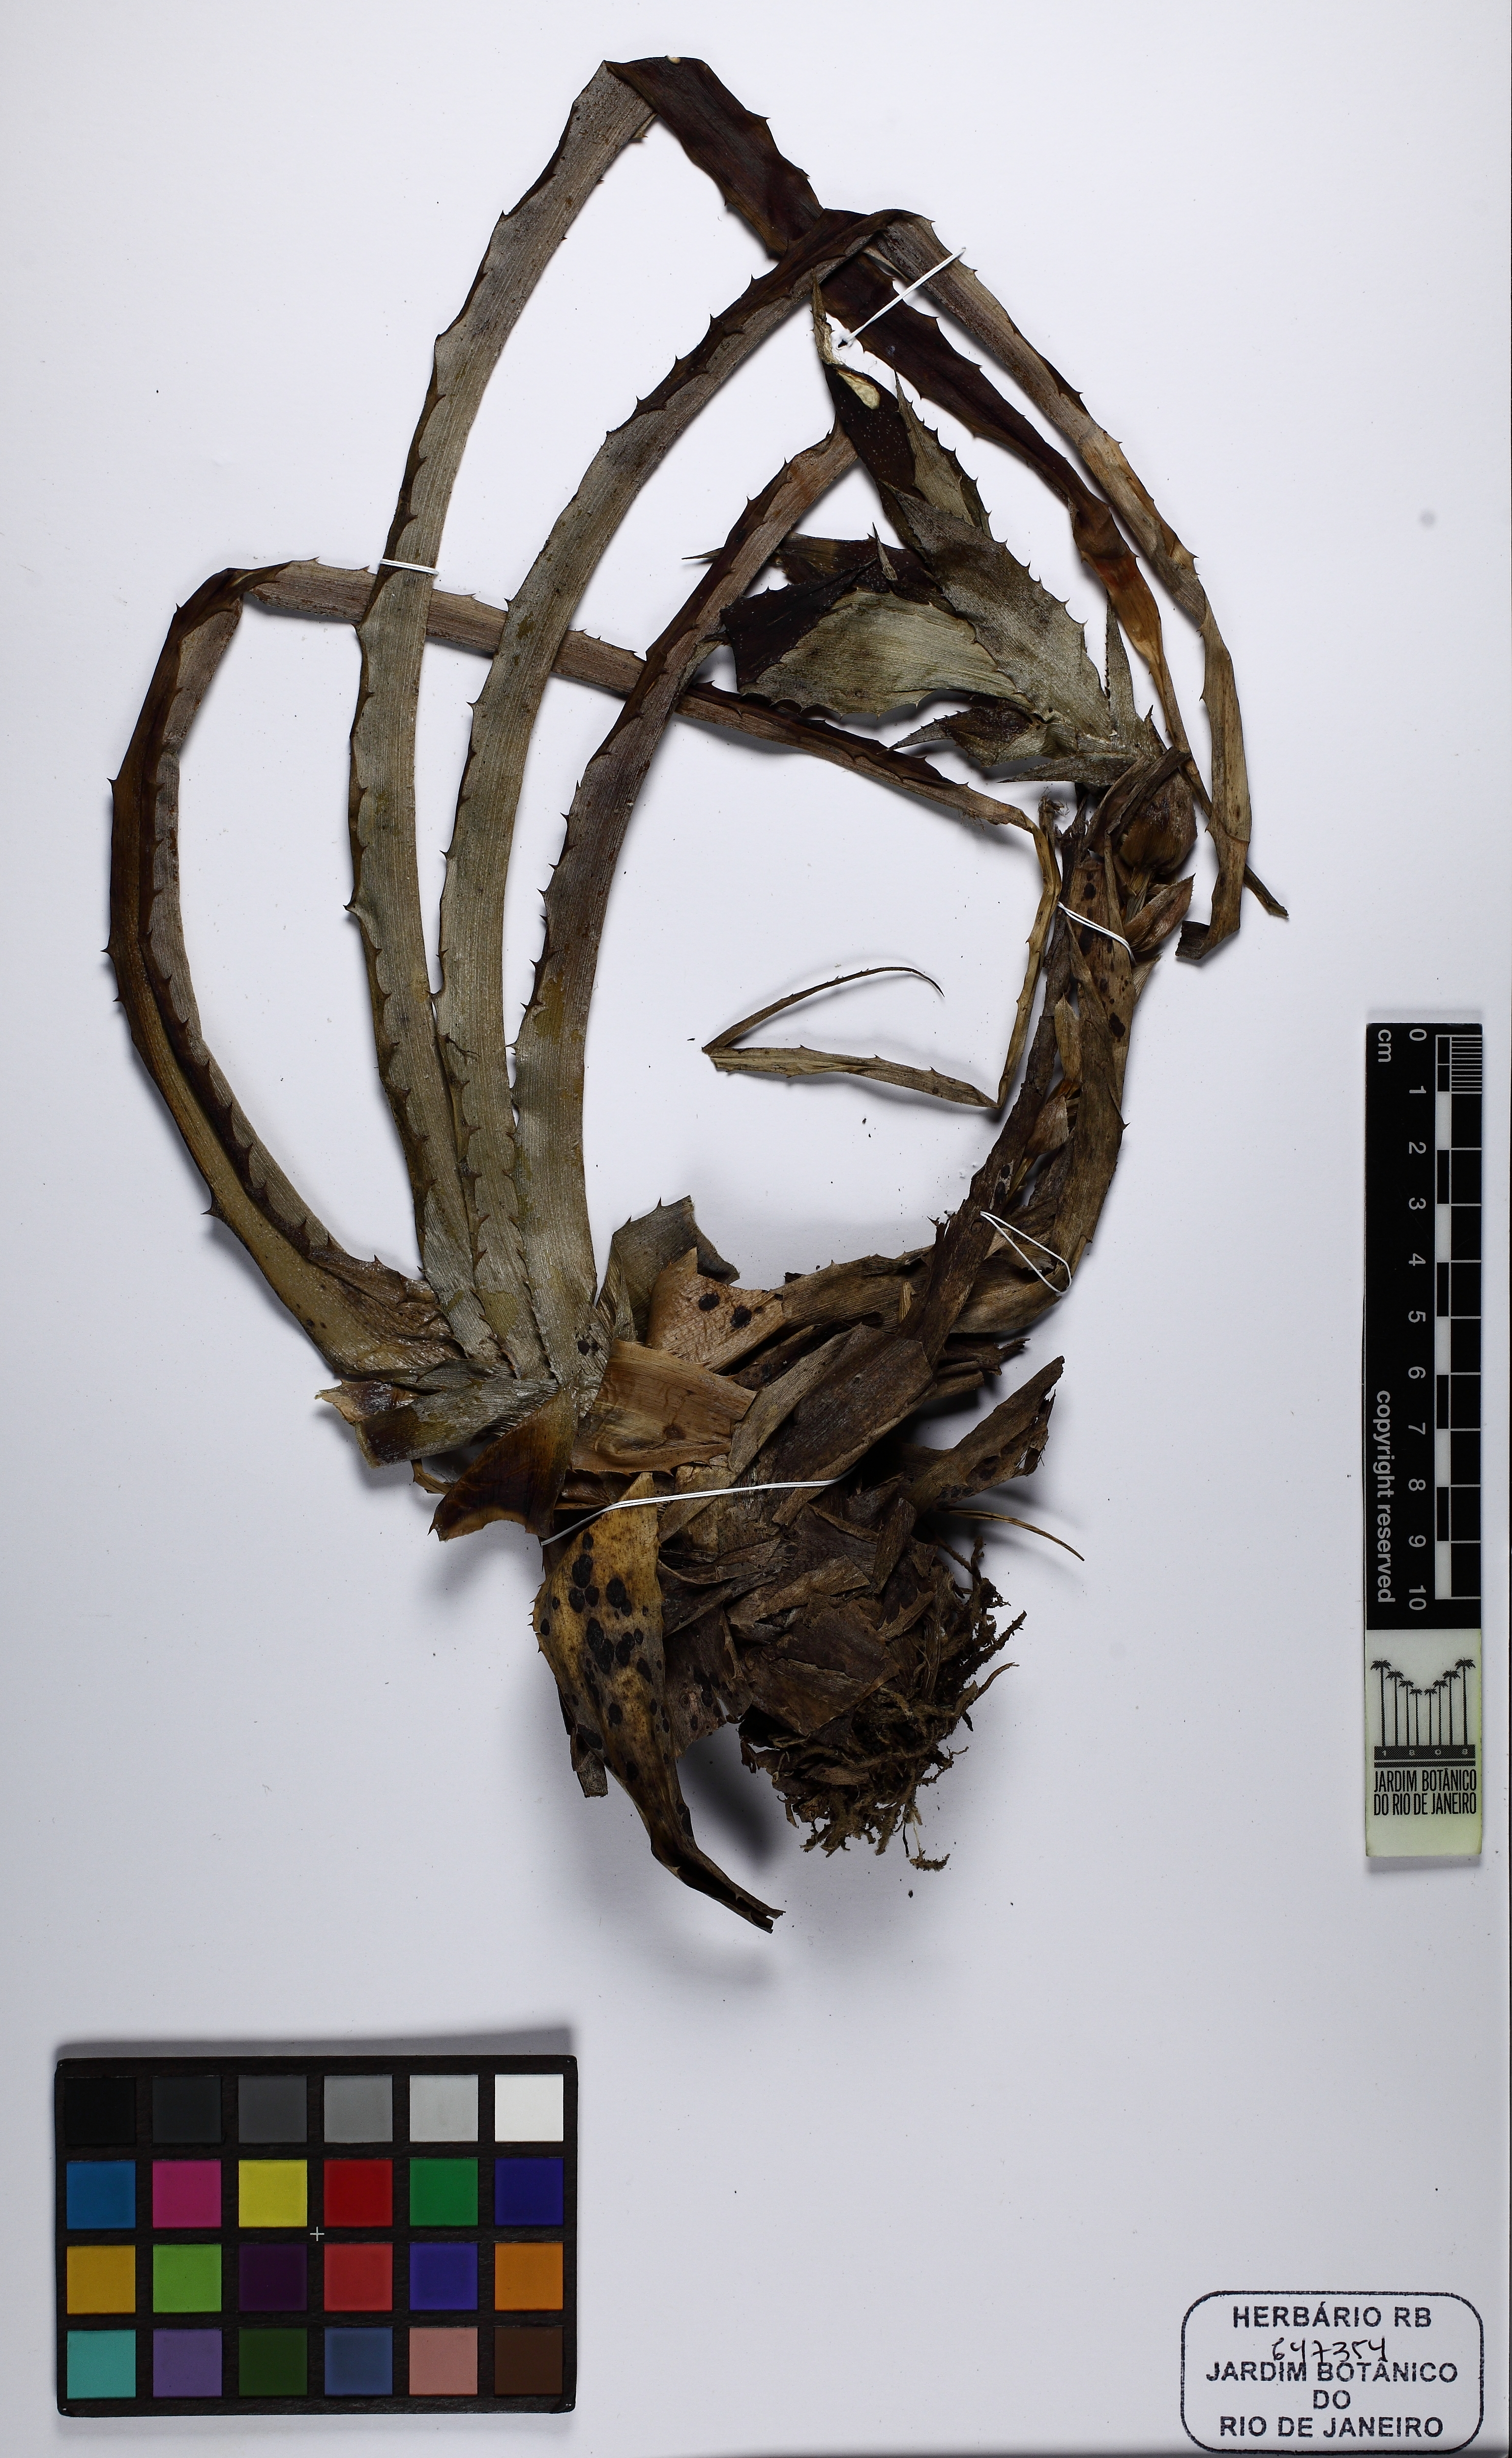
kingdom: Plantae
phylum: Tracheophyta
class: Liliopsida
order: Poales
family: Bromeliaceae
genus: Orthophytum
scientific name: Orthophytum
